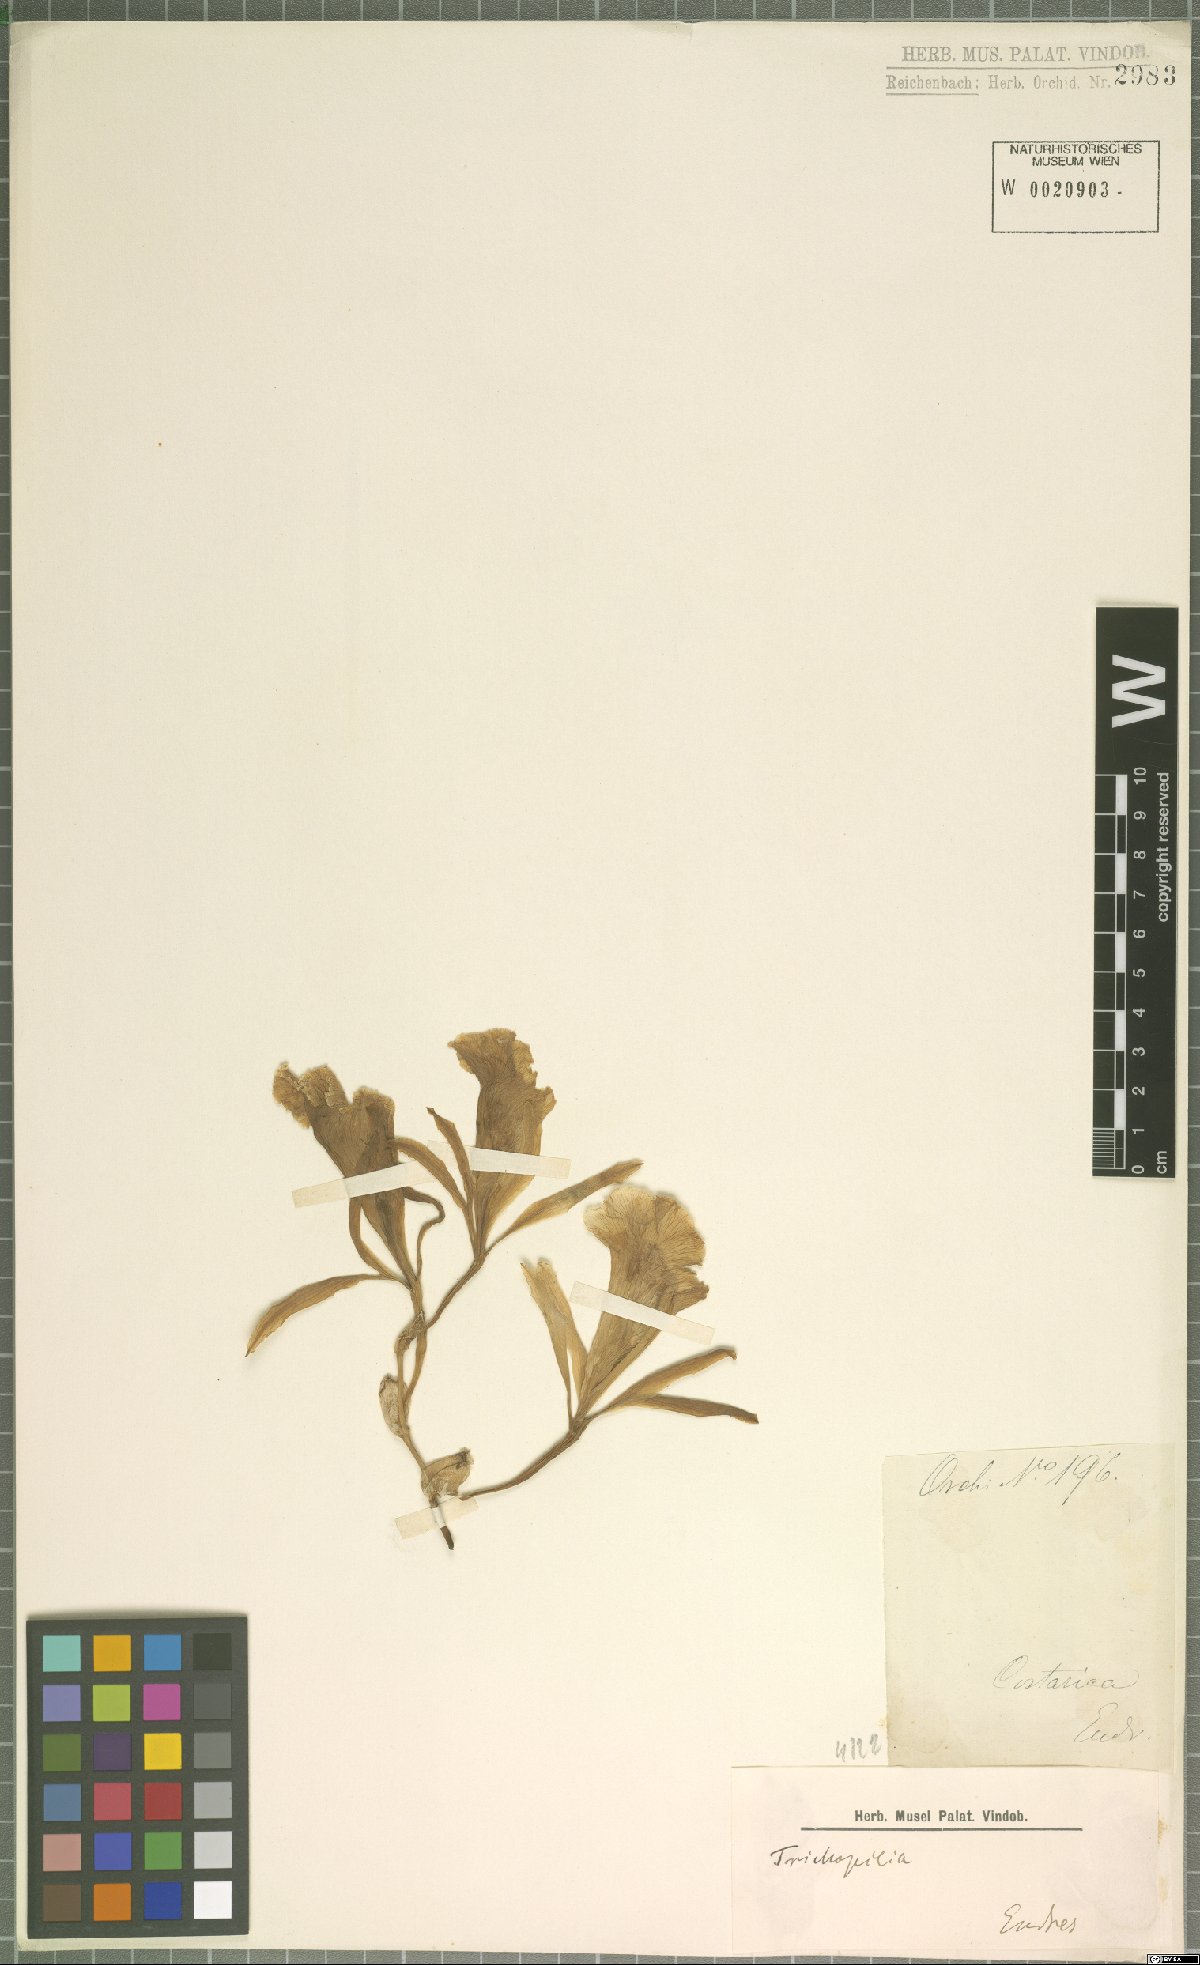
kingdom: Plantae
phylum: Tracheophyta
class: Liliopsida
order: Asparagales
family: Orchidaceae
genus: Trichopilia
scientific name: Trichopilia
